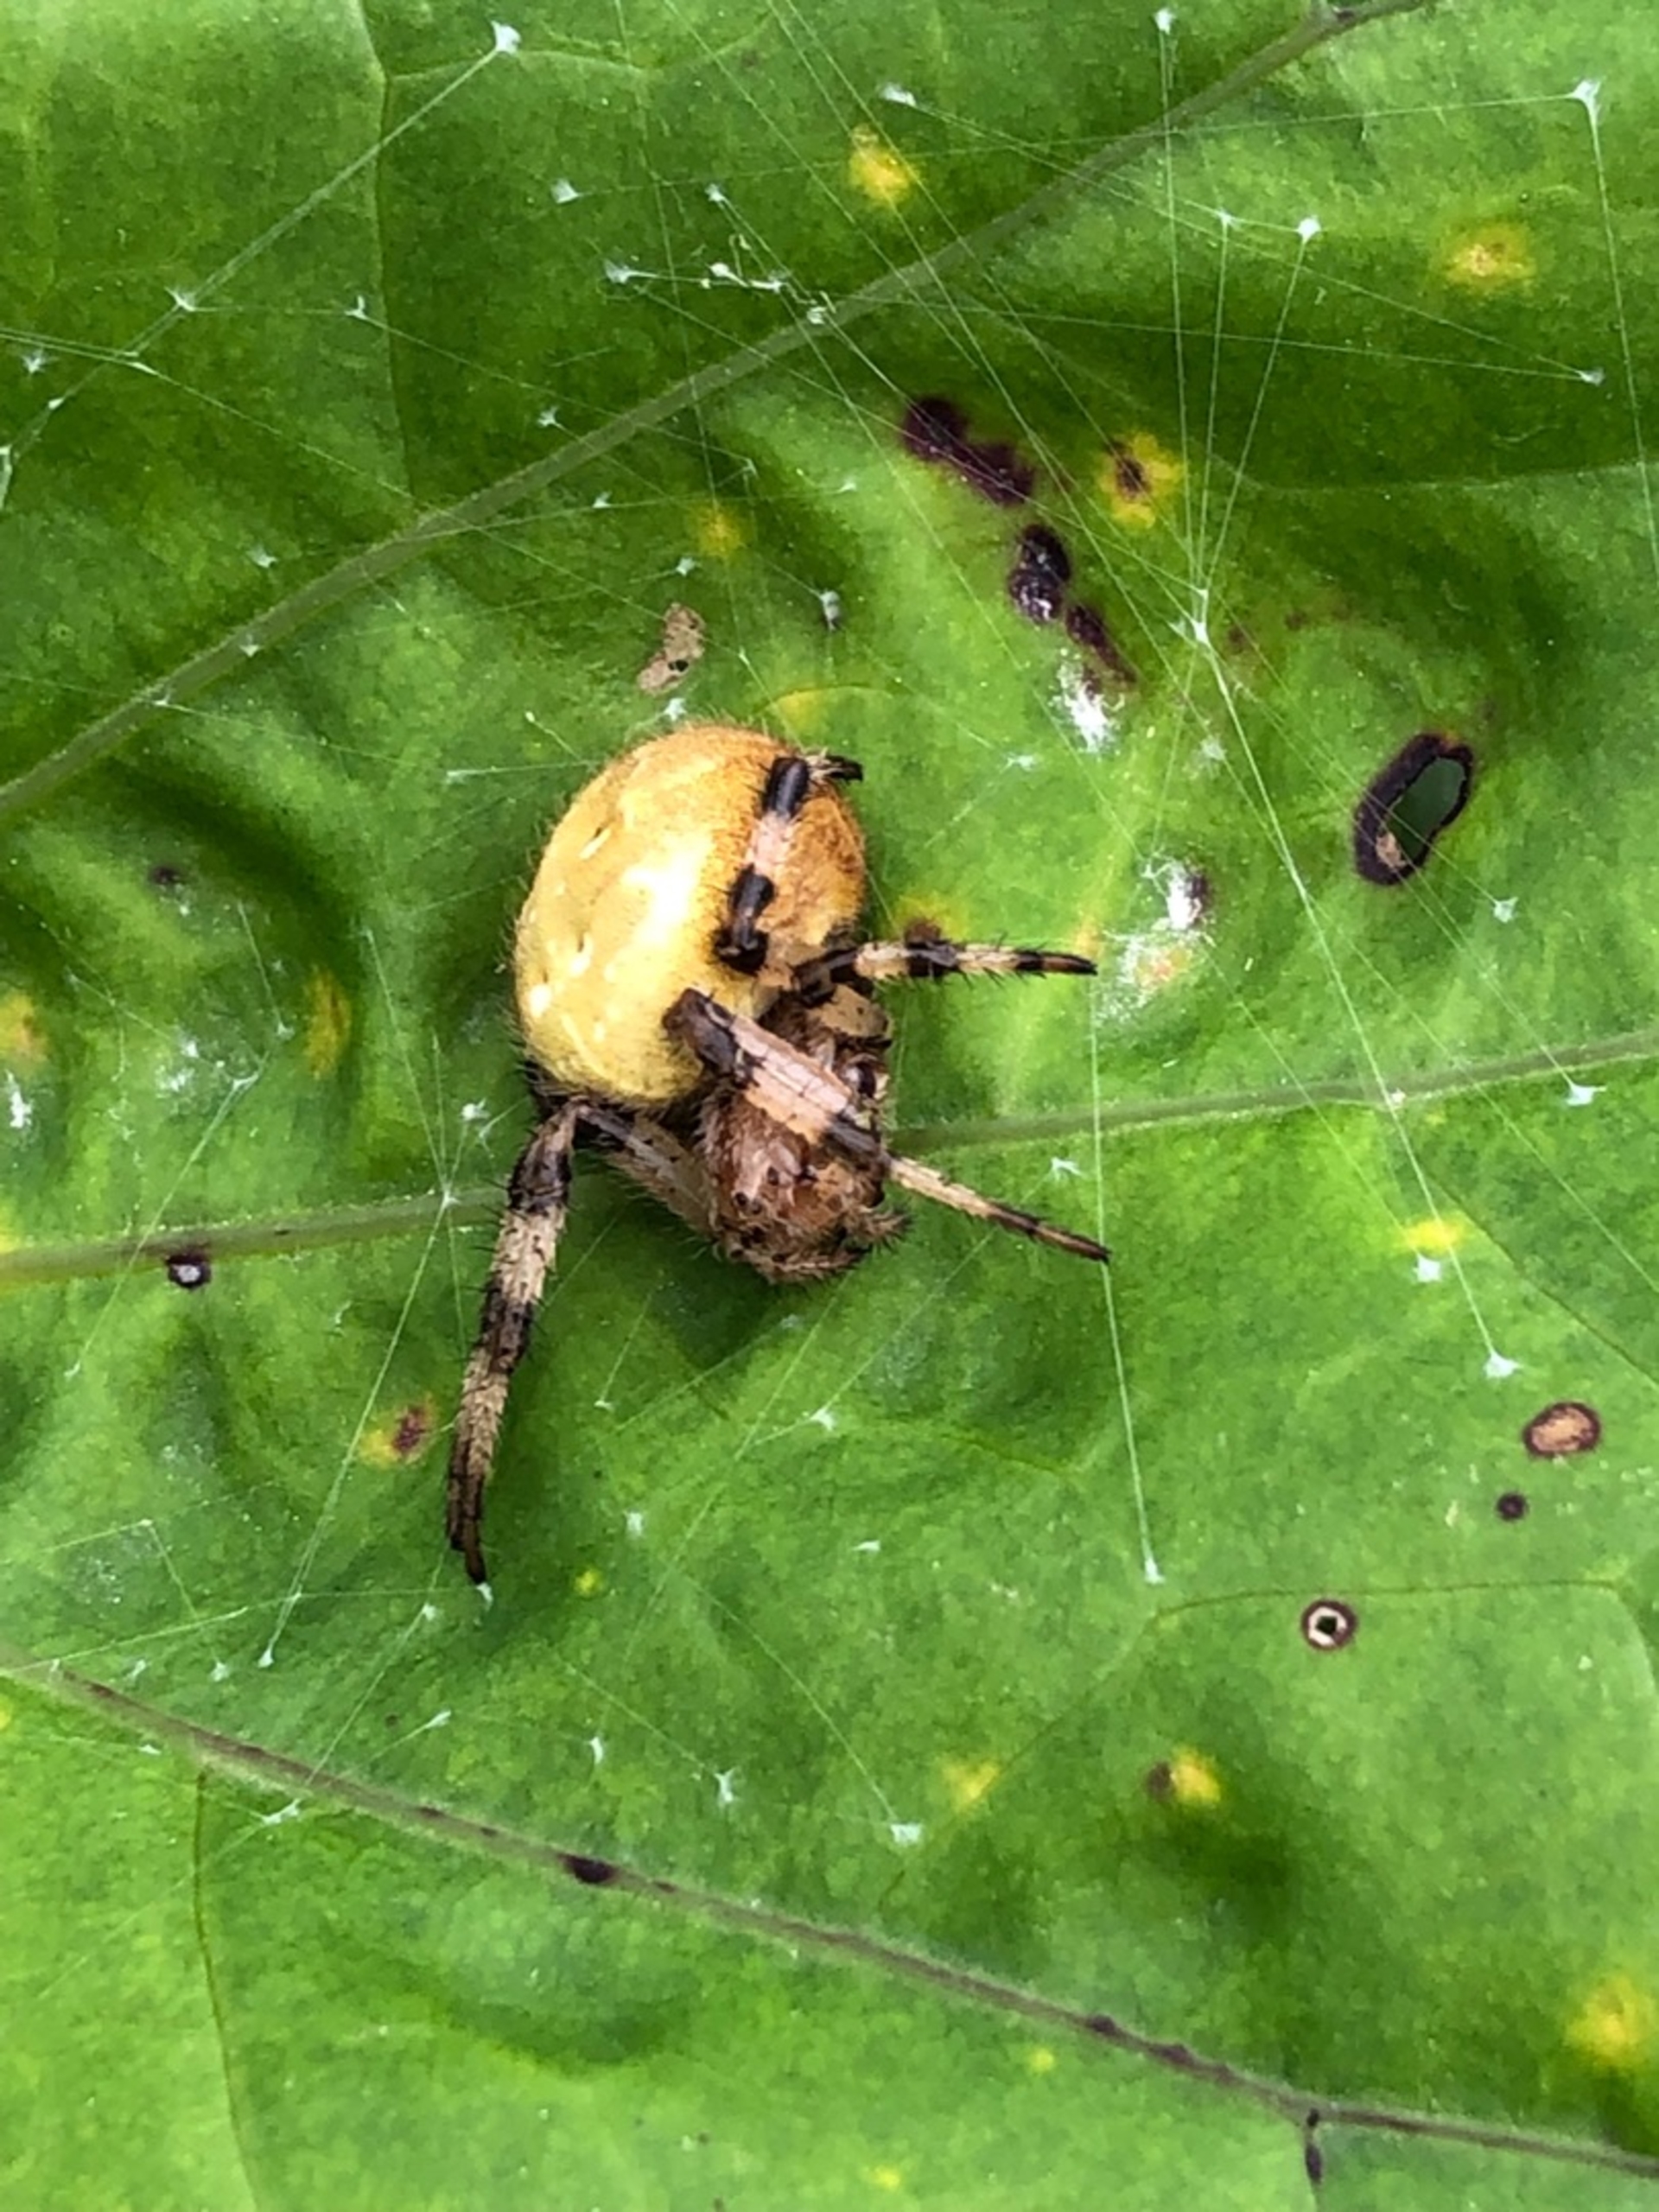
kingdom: Animalia
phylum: Arthropoda
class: Arachnida
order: Araneae
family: Araneidae
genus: Araneus
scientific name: Araneus quadratus
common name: Kvadratedderkop
